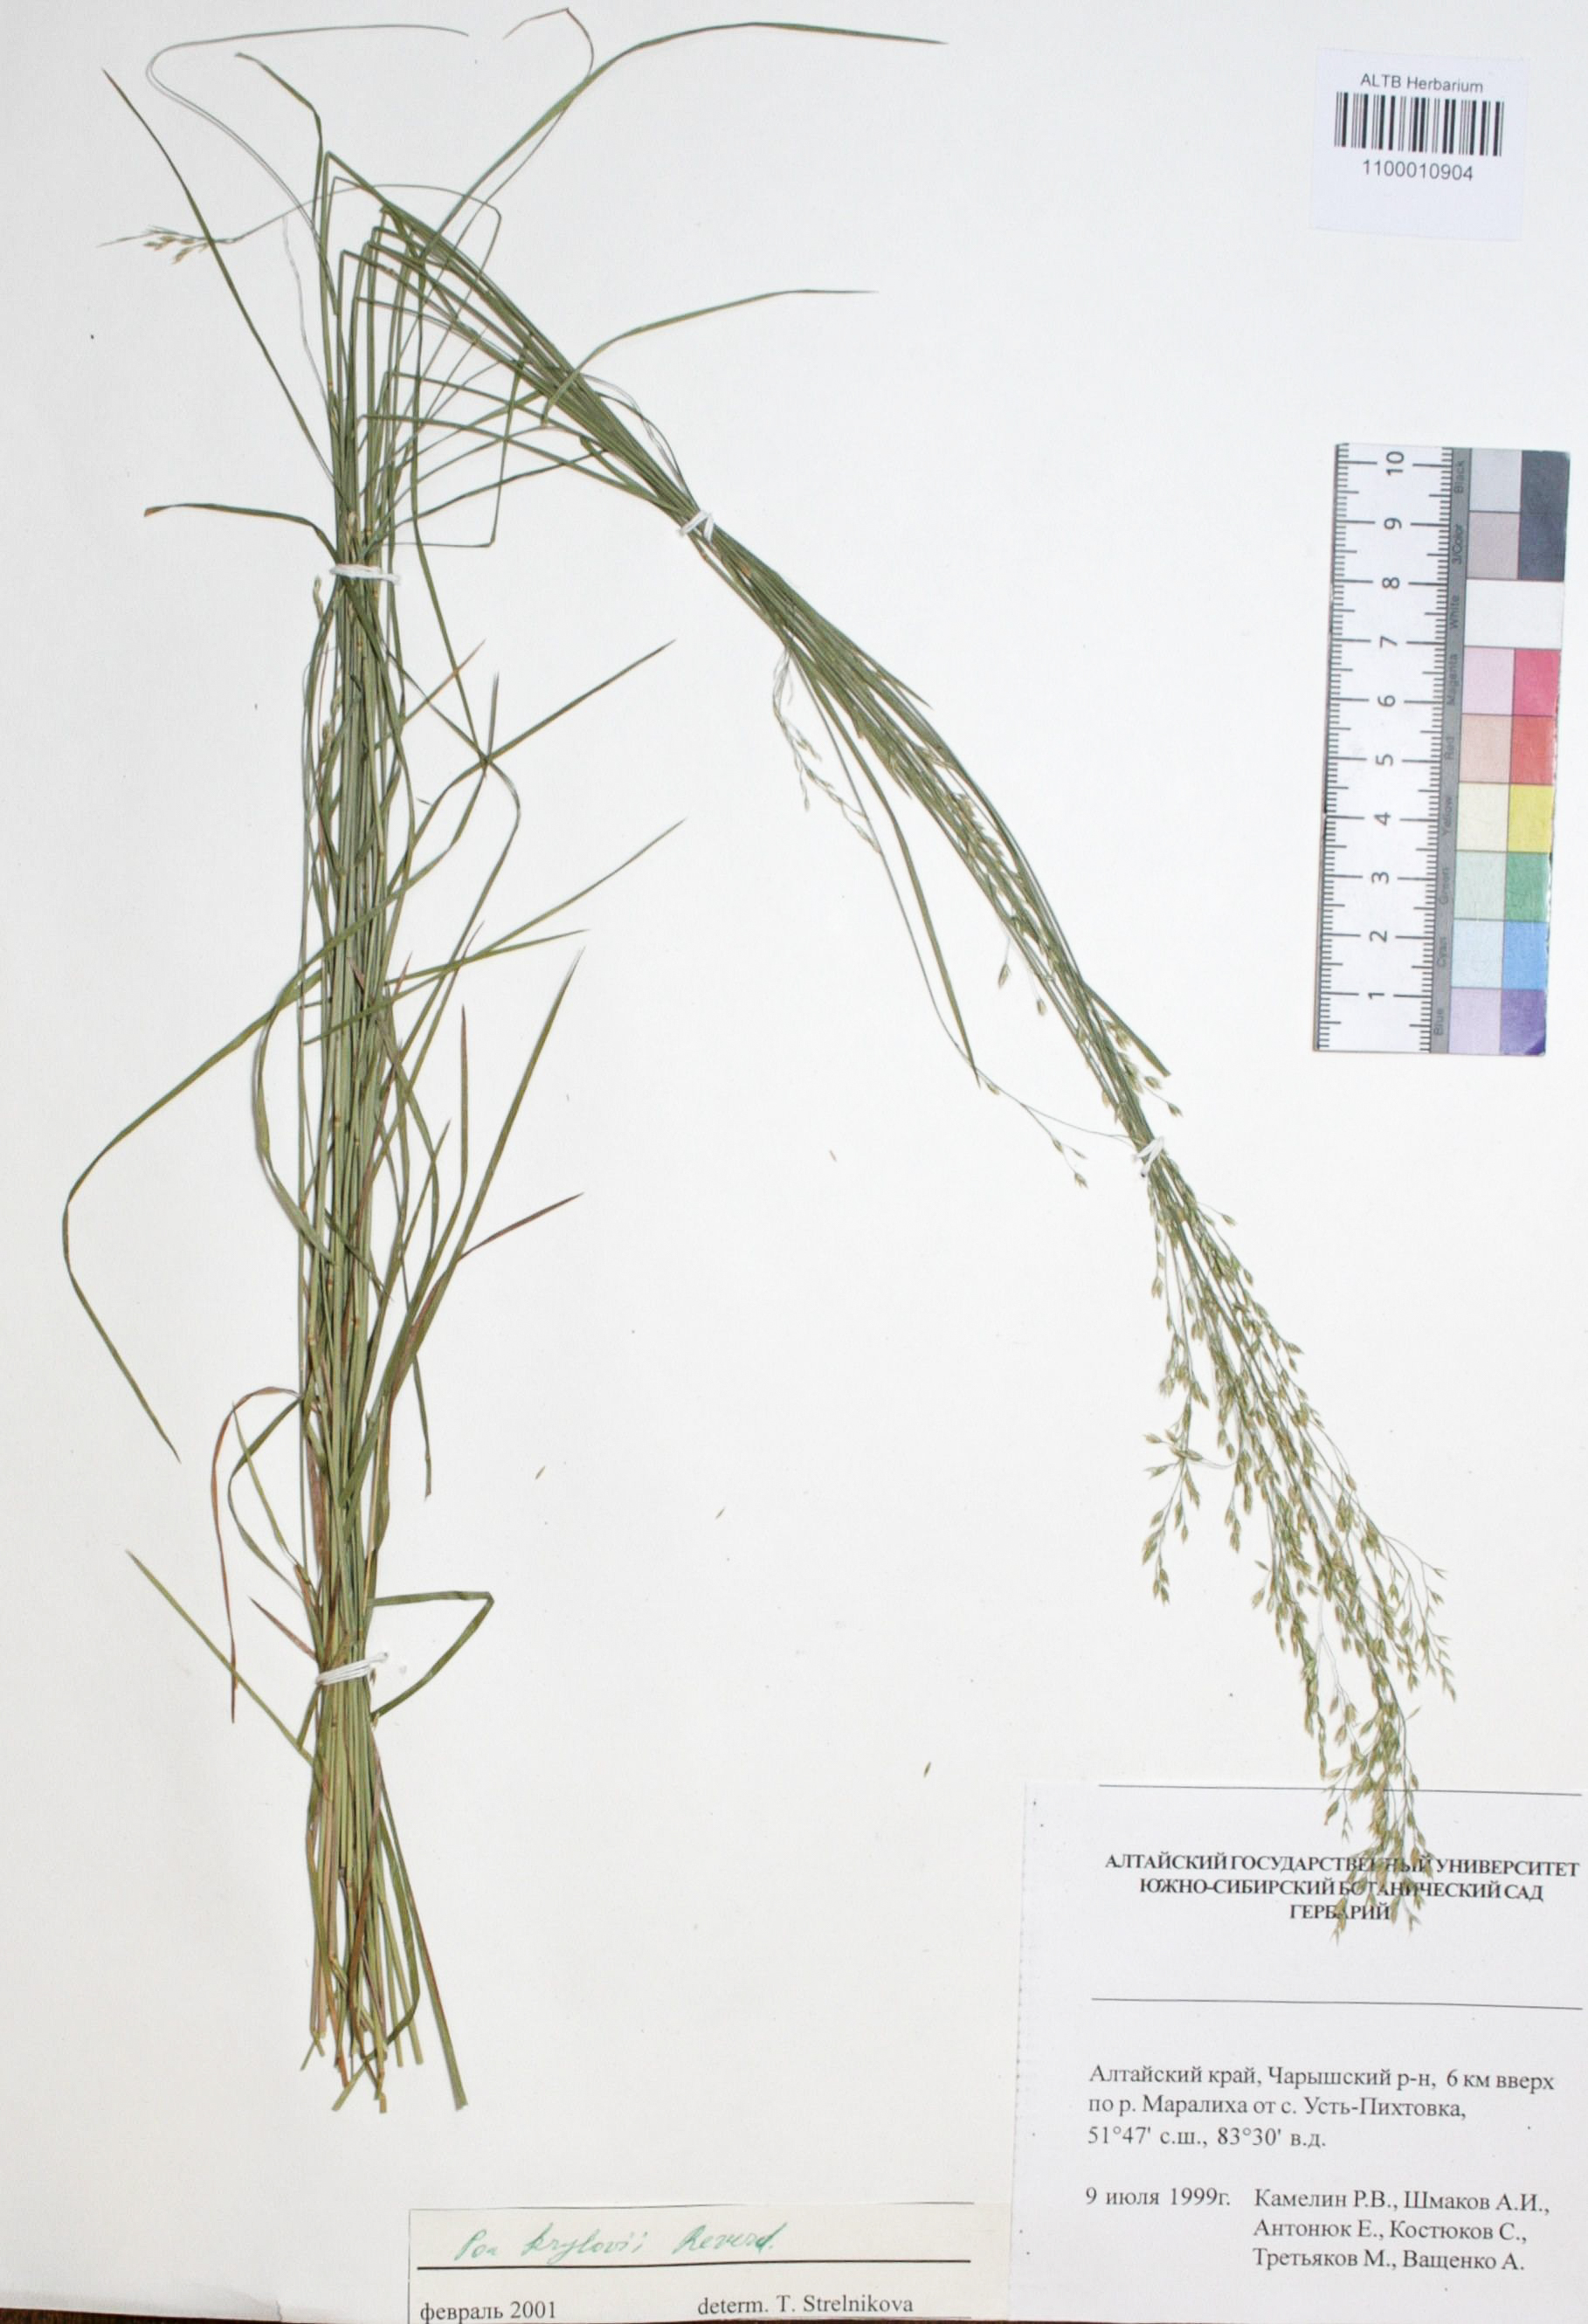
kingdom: Plantae
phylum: Tracheophyta
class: Liliopsida
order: Poales
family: Poaceae
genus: Poa
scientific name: Poa versicolor
